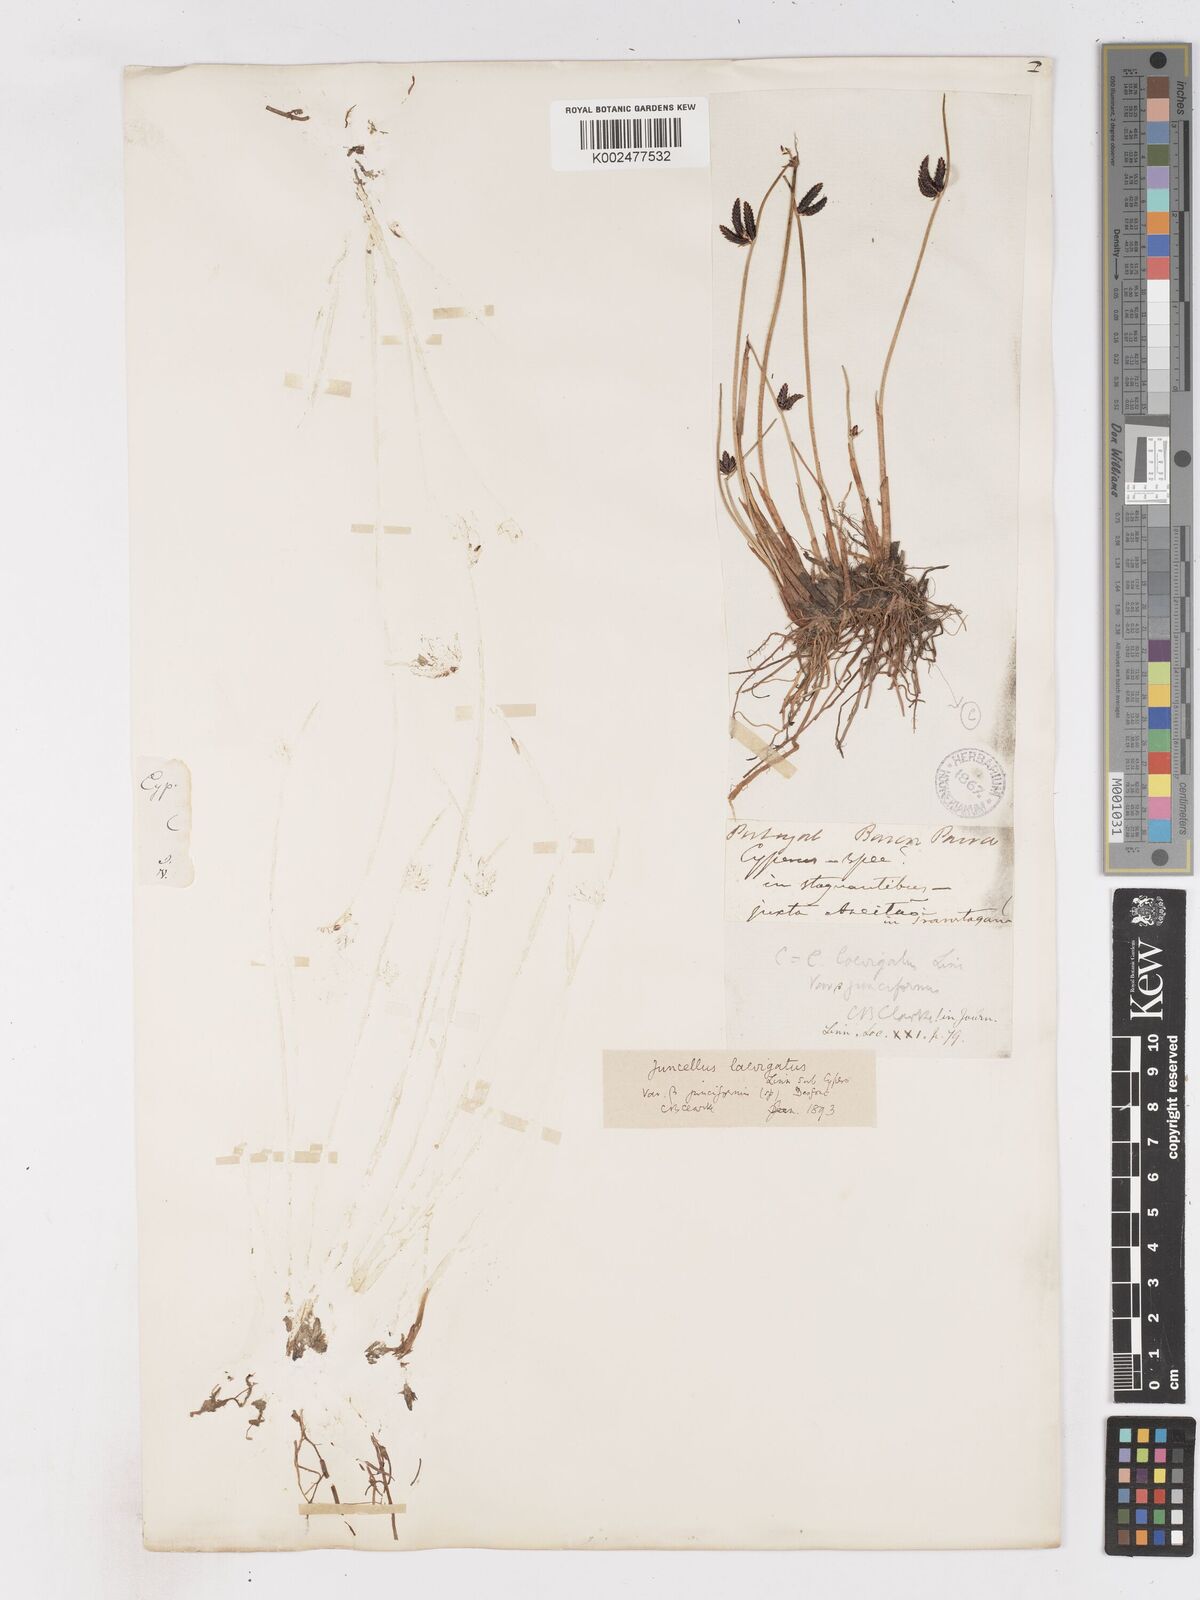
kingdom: Plantae
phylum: Tracheophyta
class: Liliopsida
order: Poales
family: Cyperaceae
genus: Cyperus
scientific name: Cyperus laevigatus
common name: Smooth flat sedge
